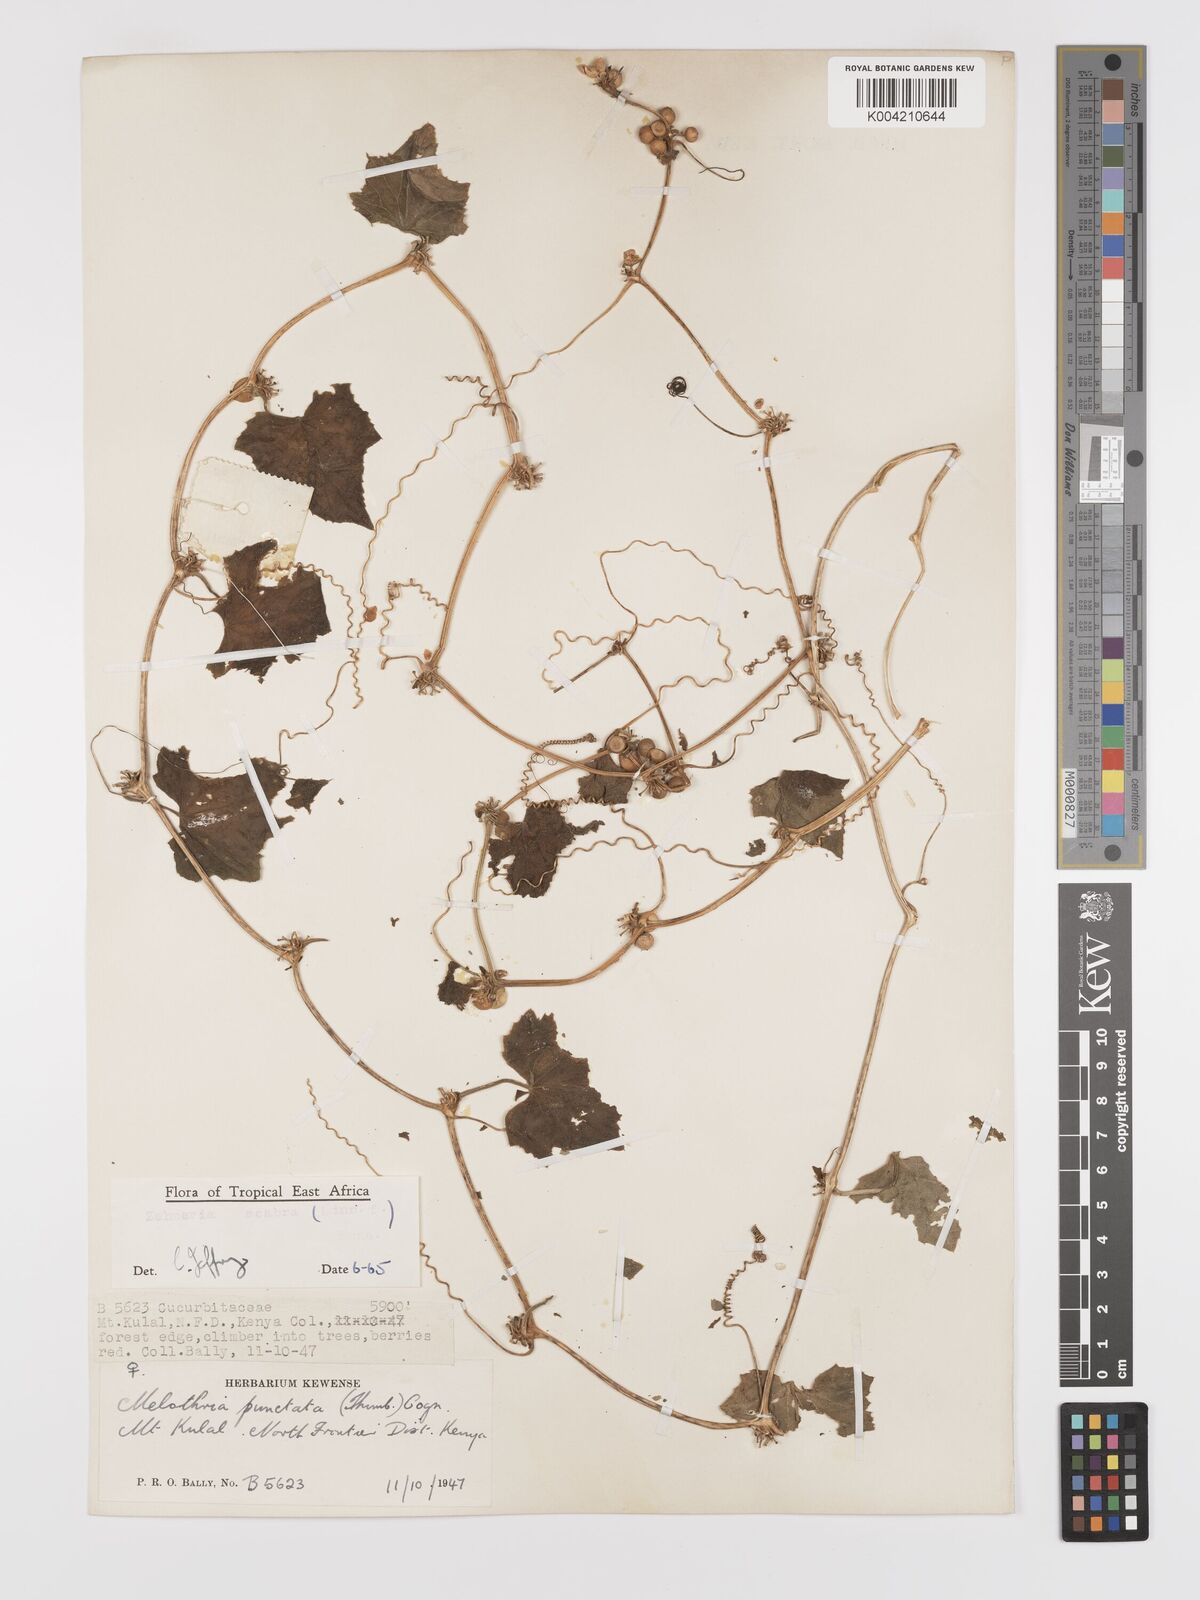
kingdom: Plantae
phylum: Tracheophyta
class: Magnoliopsida
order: Cucurbitales
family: Cucurbitaceae
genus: Zehneria
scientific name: Zehneria
